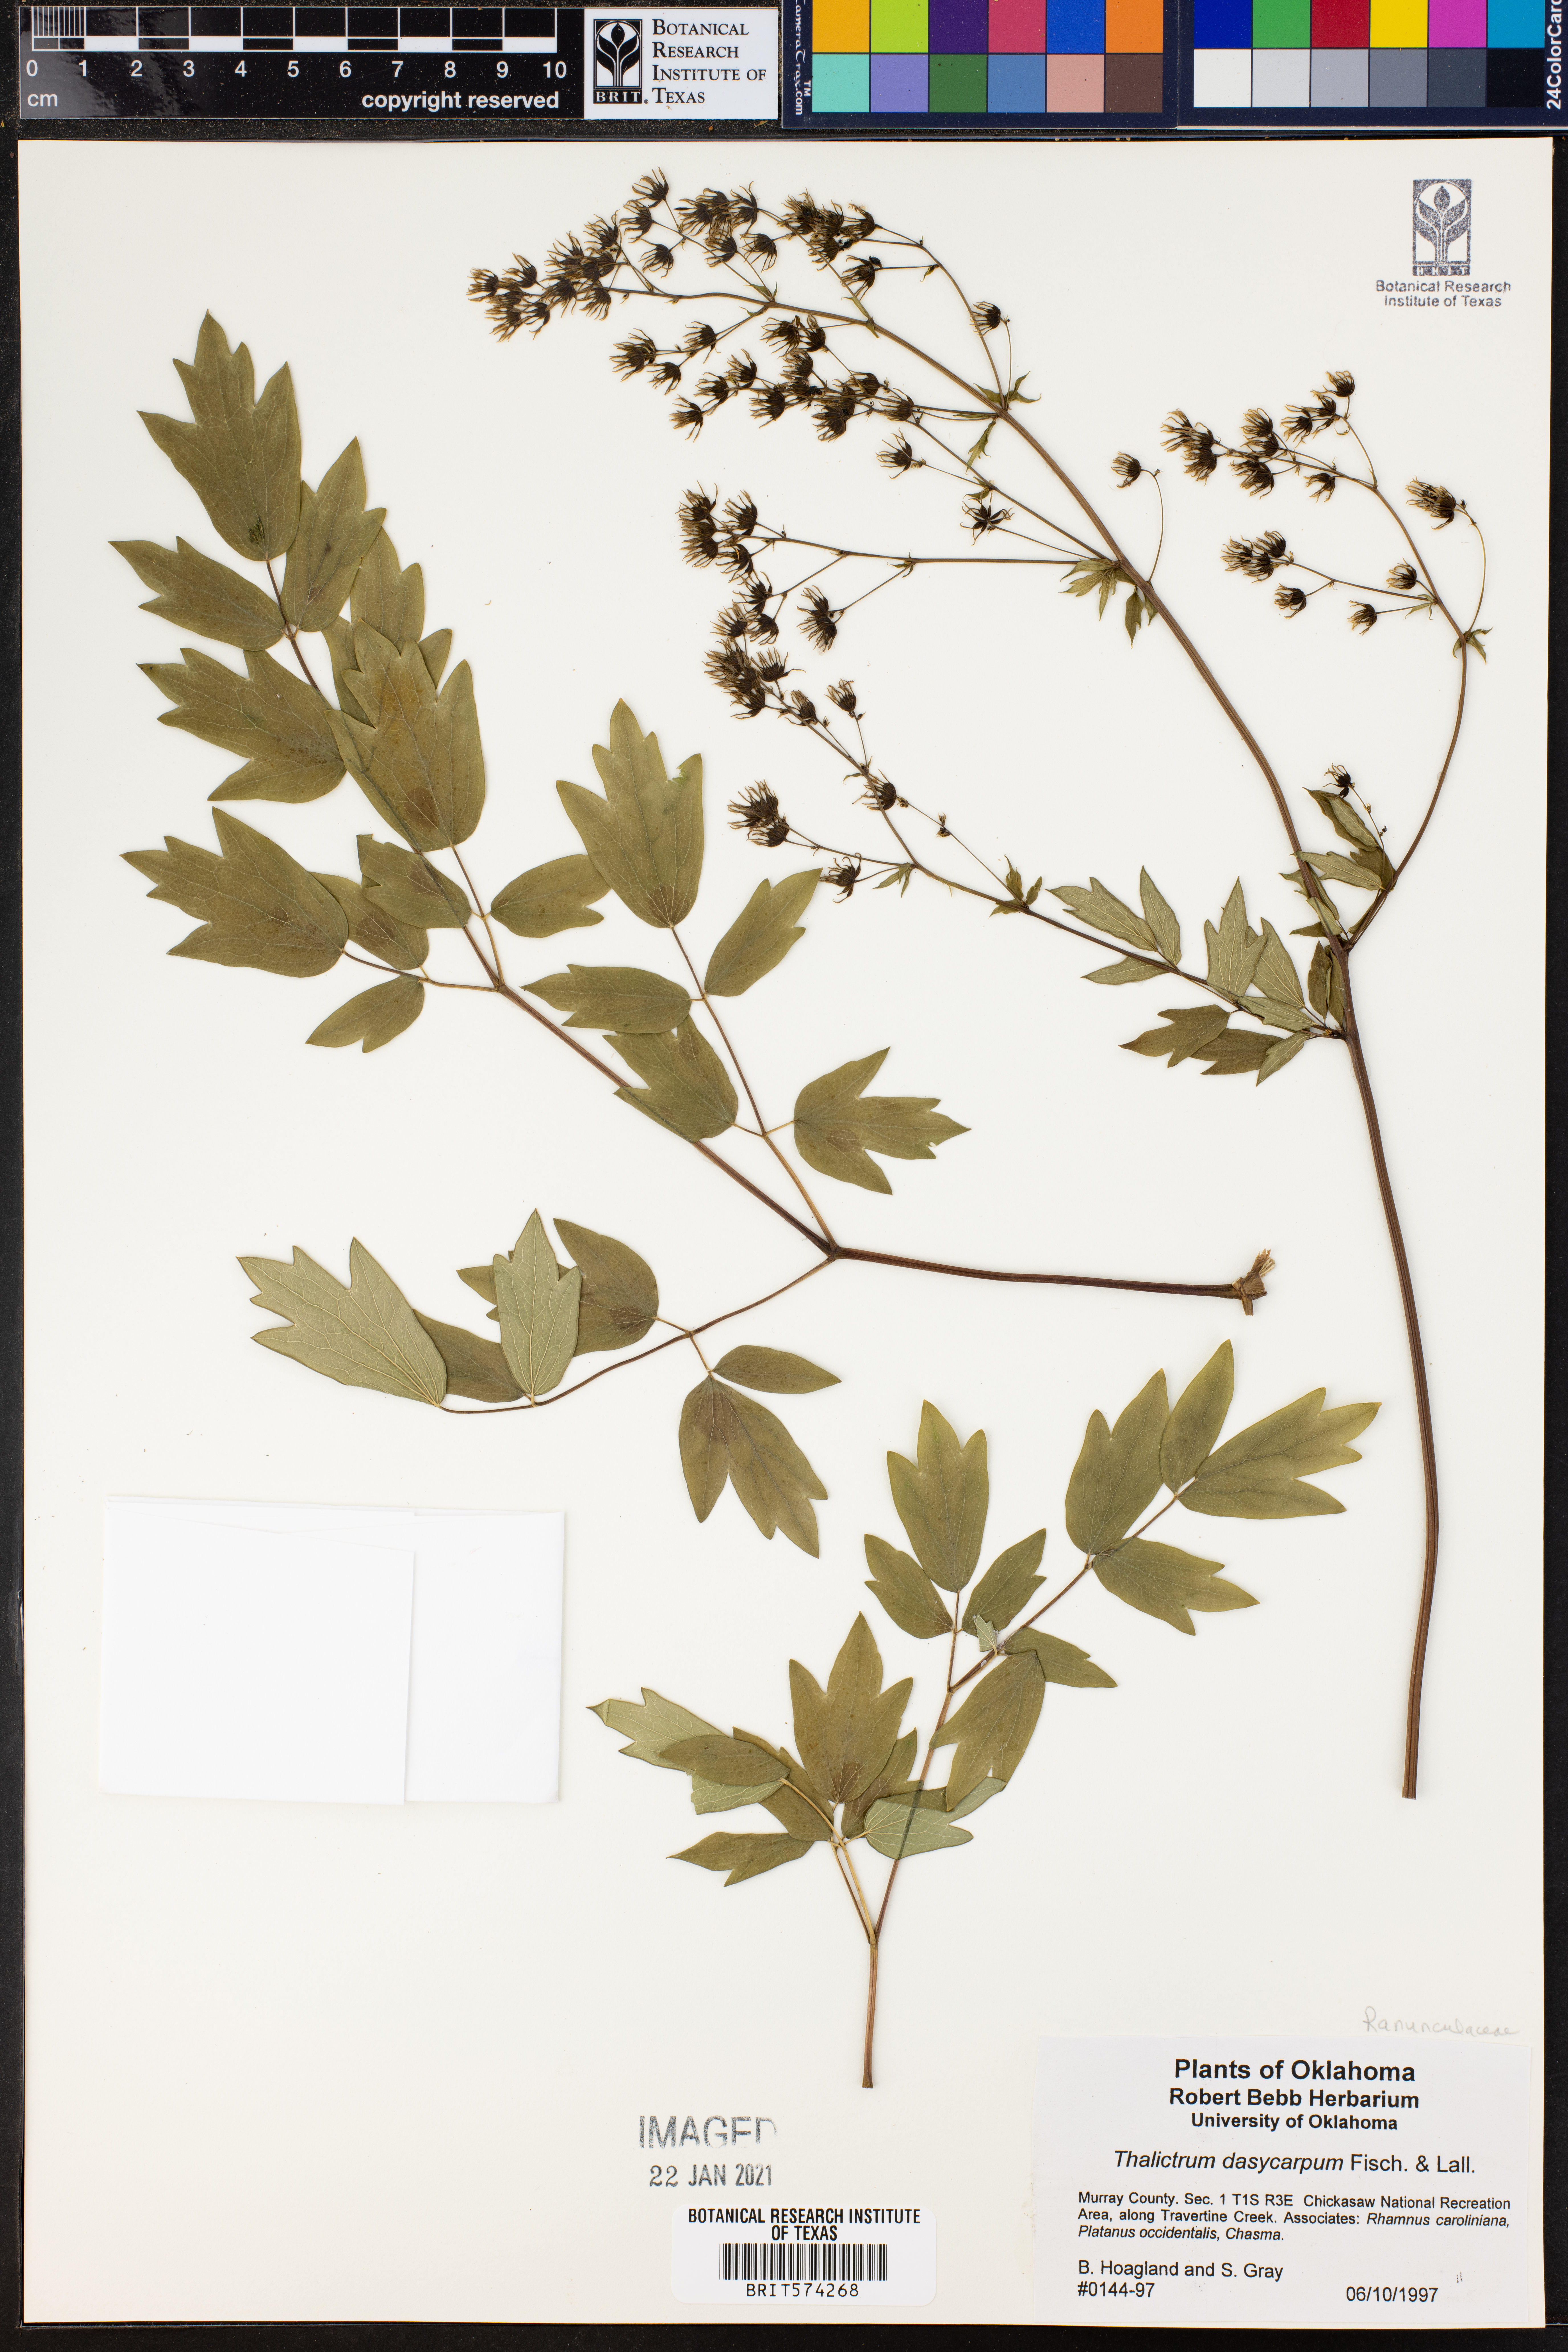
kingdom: Plantae
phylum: Tracheophyta
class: Magnoliopsida
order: Ranunculales
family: Ranunculaceae
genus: Thalictrum
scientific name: Thalictrum dasycarpum
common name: Purple meadow-rue
